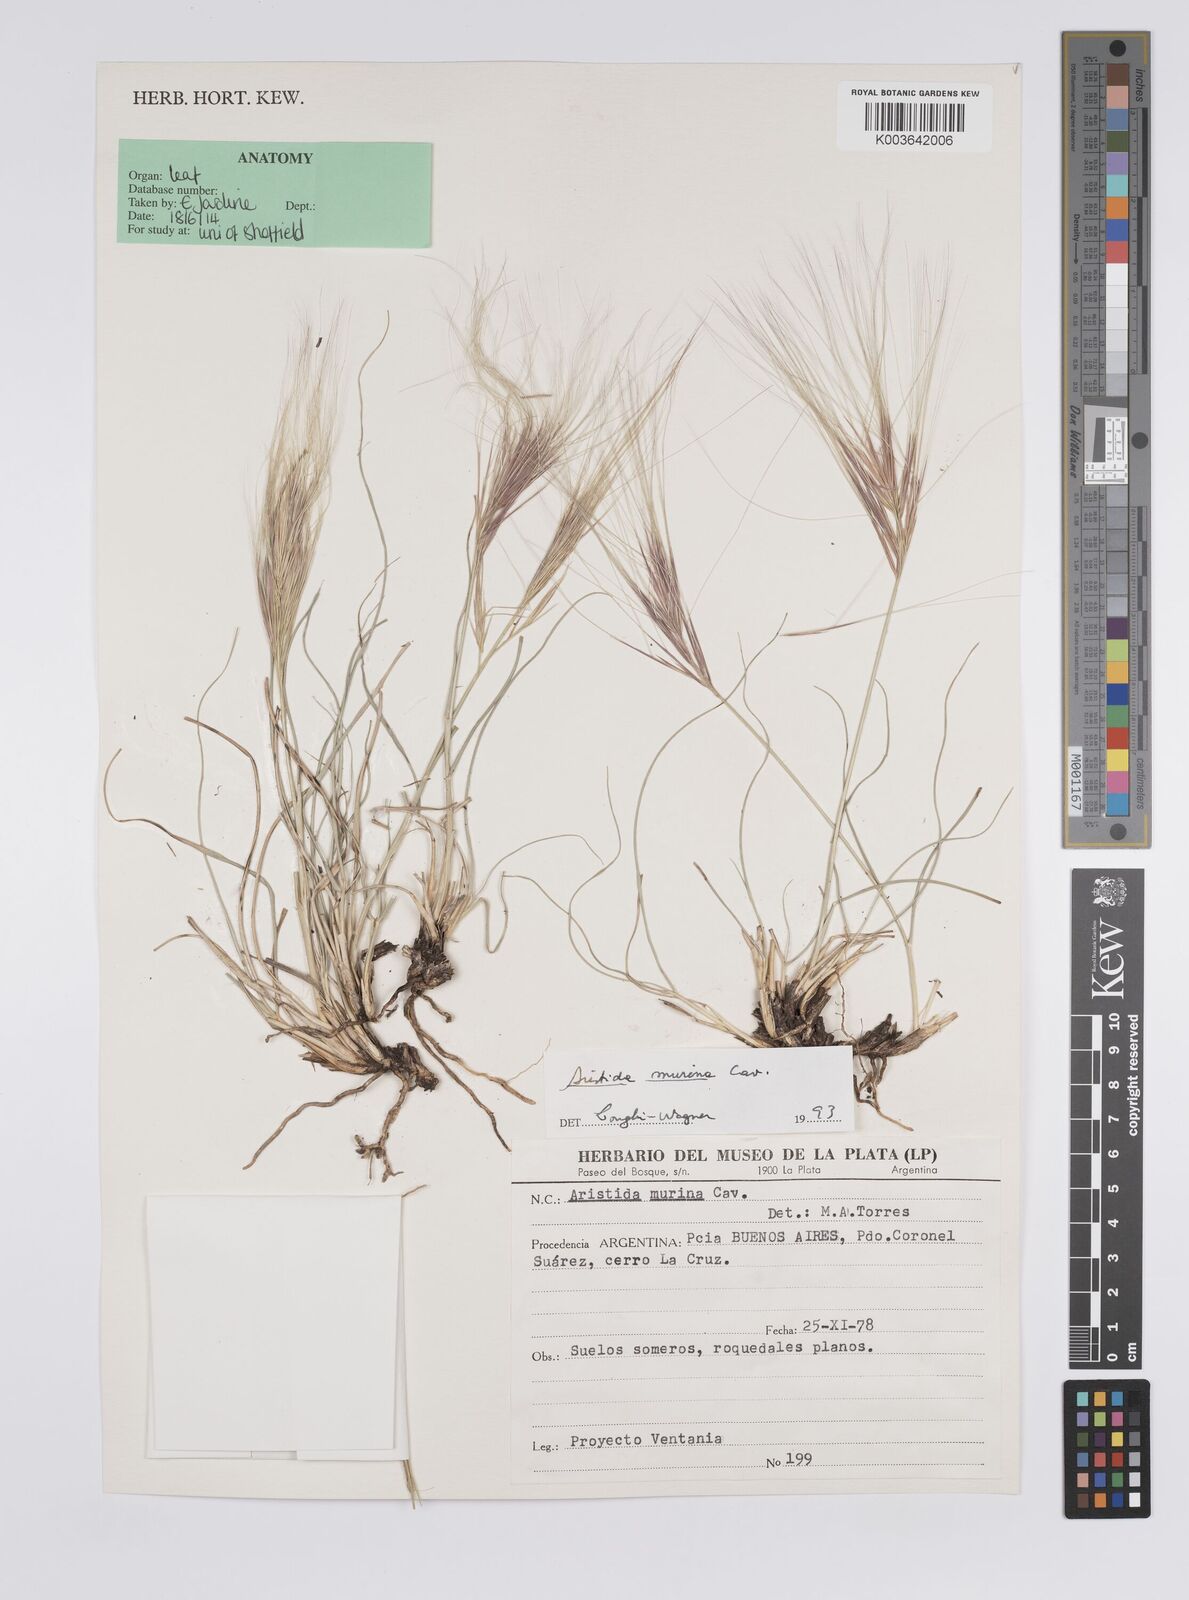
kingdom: Plantae
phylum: Tracheophyta
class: Liliopsida
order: Poales
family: Poaceae
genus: Aristida
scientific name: Aristida murina
